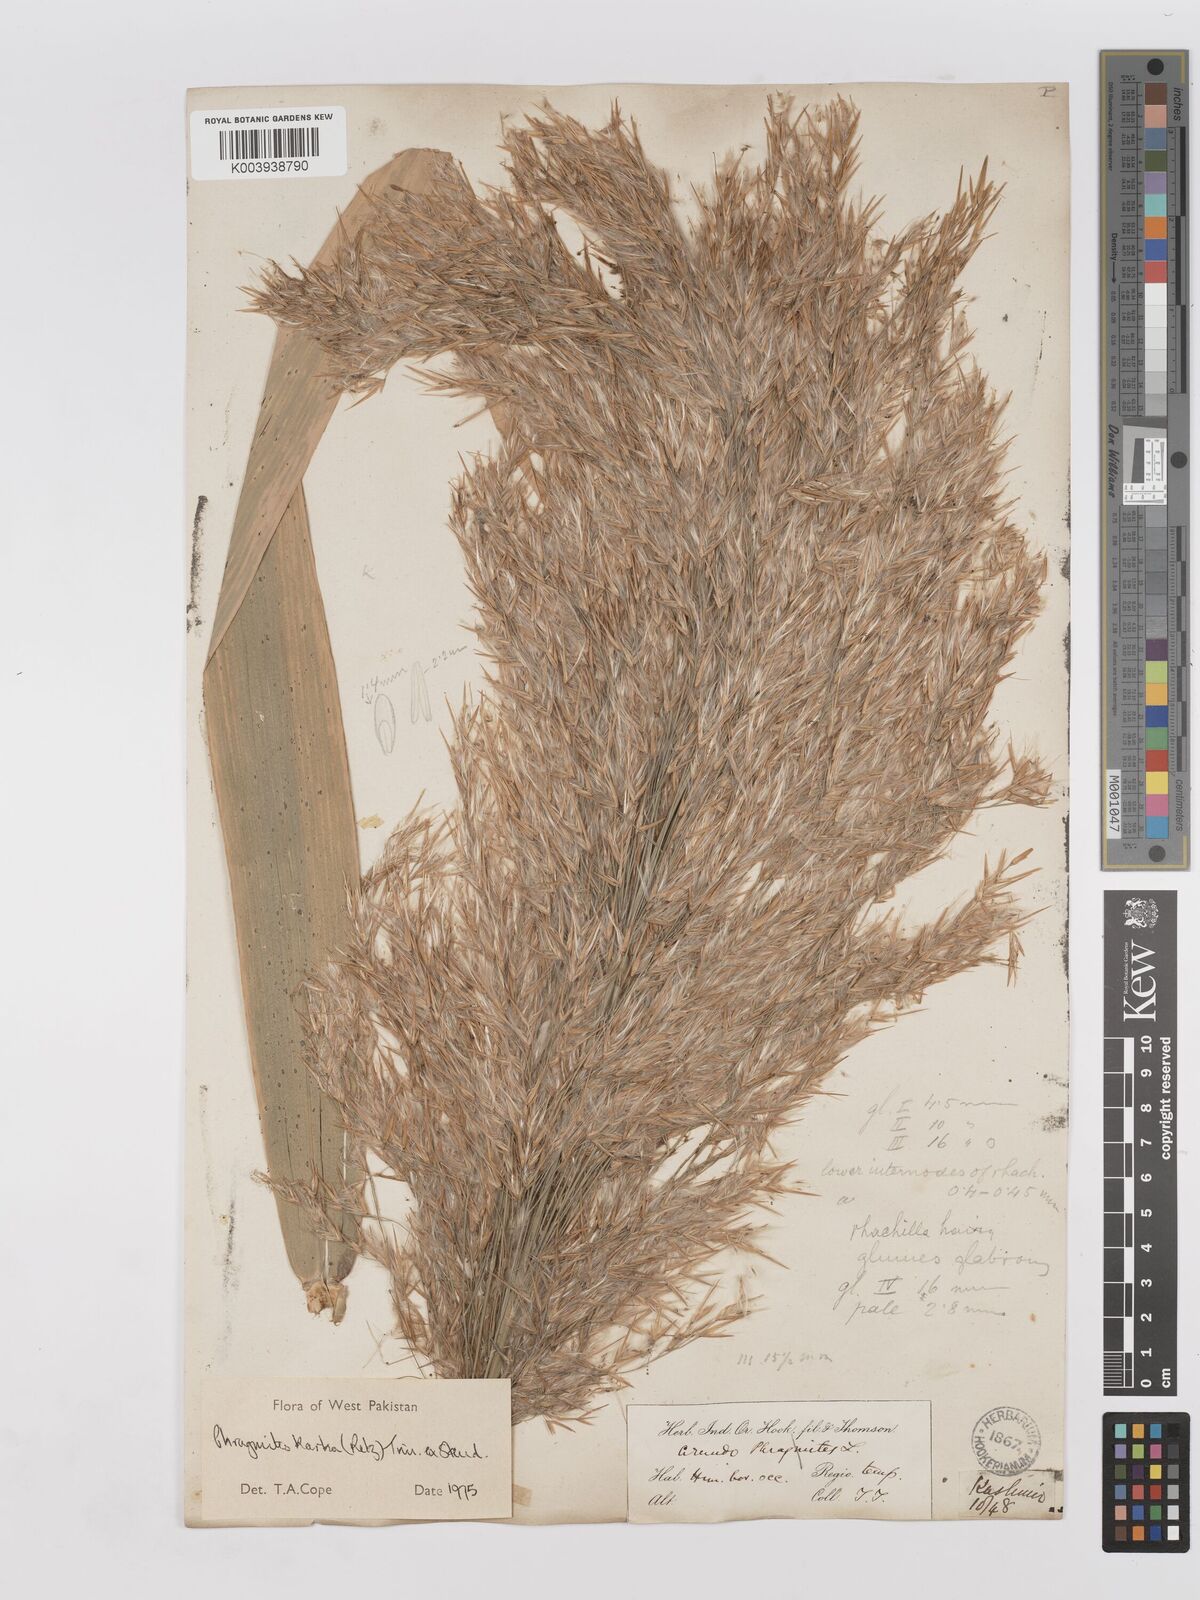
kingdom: Plantae
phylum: Tracheophyta
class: Liliopsida
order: Poales
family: Poaceae
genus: Phragmites
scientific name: Phragmites karka
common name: Tropical reed
